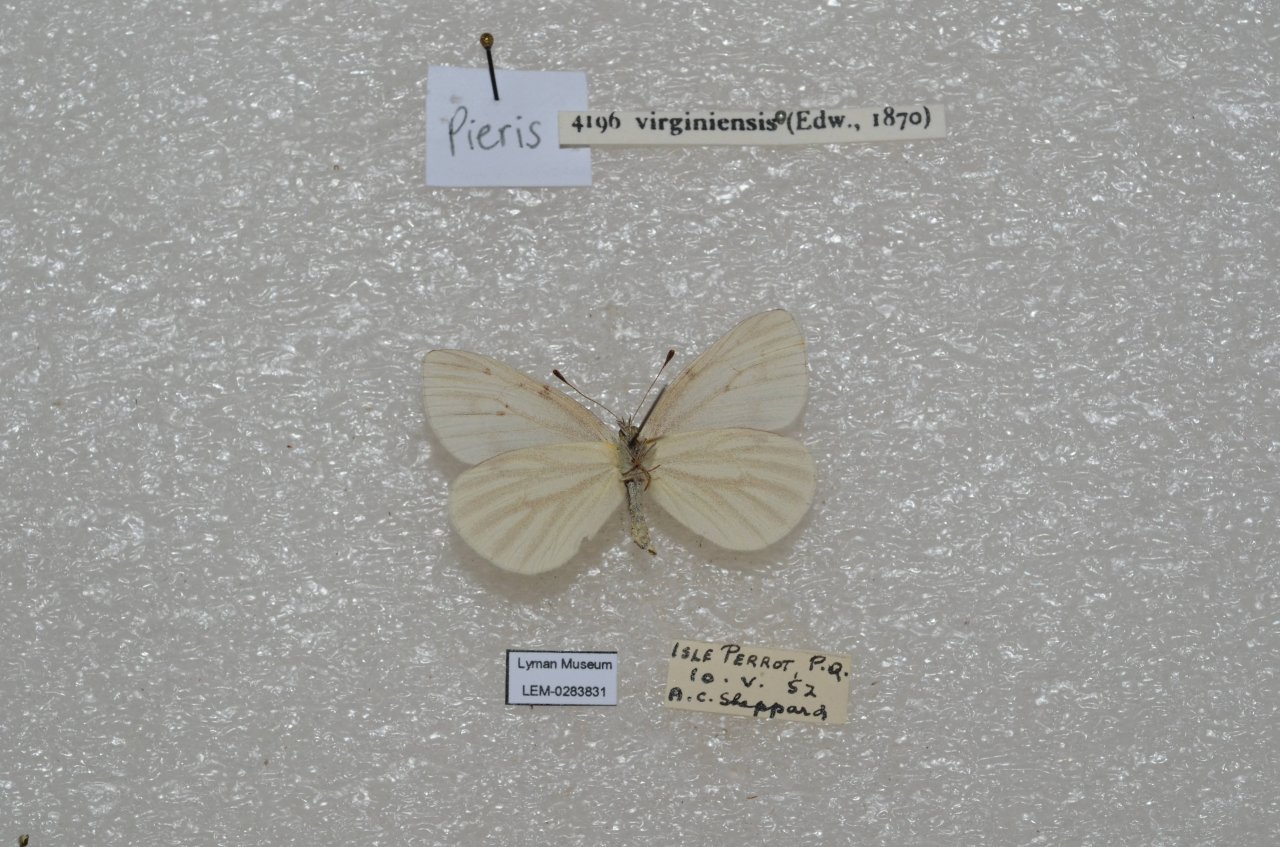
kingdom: Animalia
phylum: Arthropoda
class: Insecta
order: Lepidoptera
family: Pieridae
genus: Pieris
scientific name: Pieris virginiensis
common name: West Virginia White
